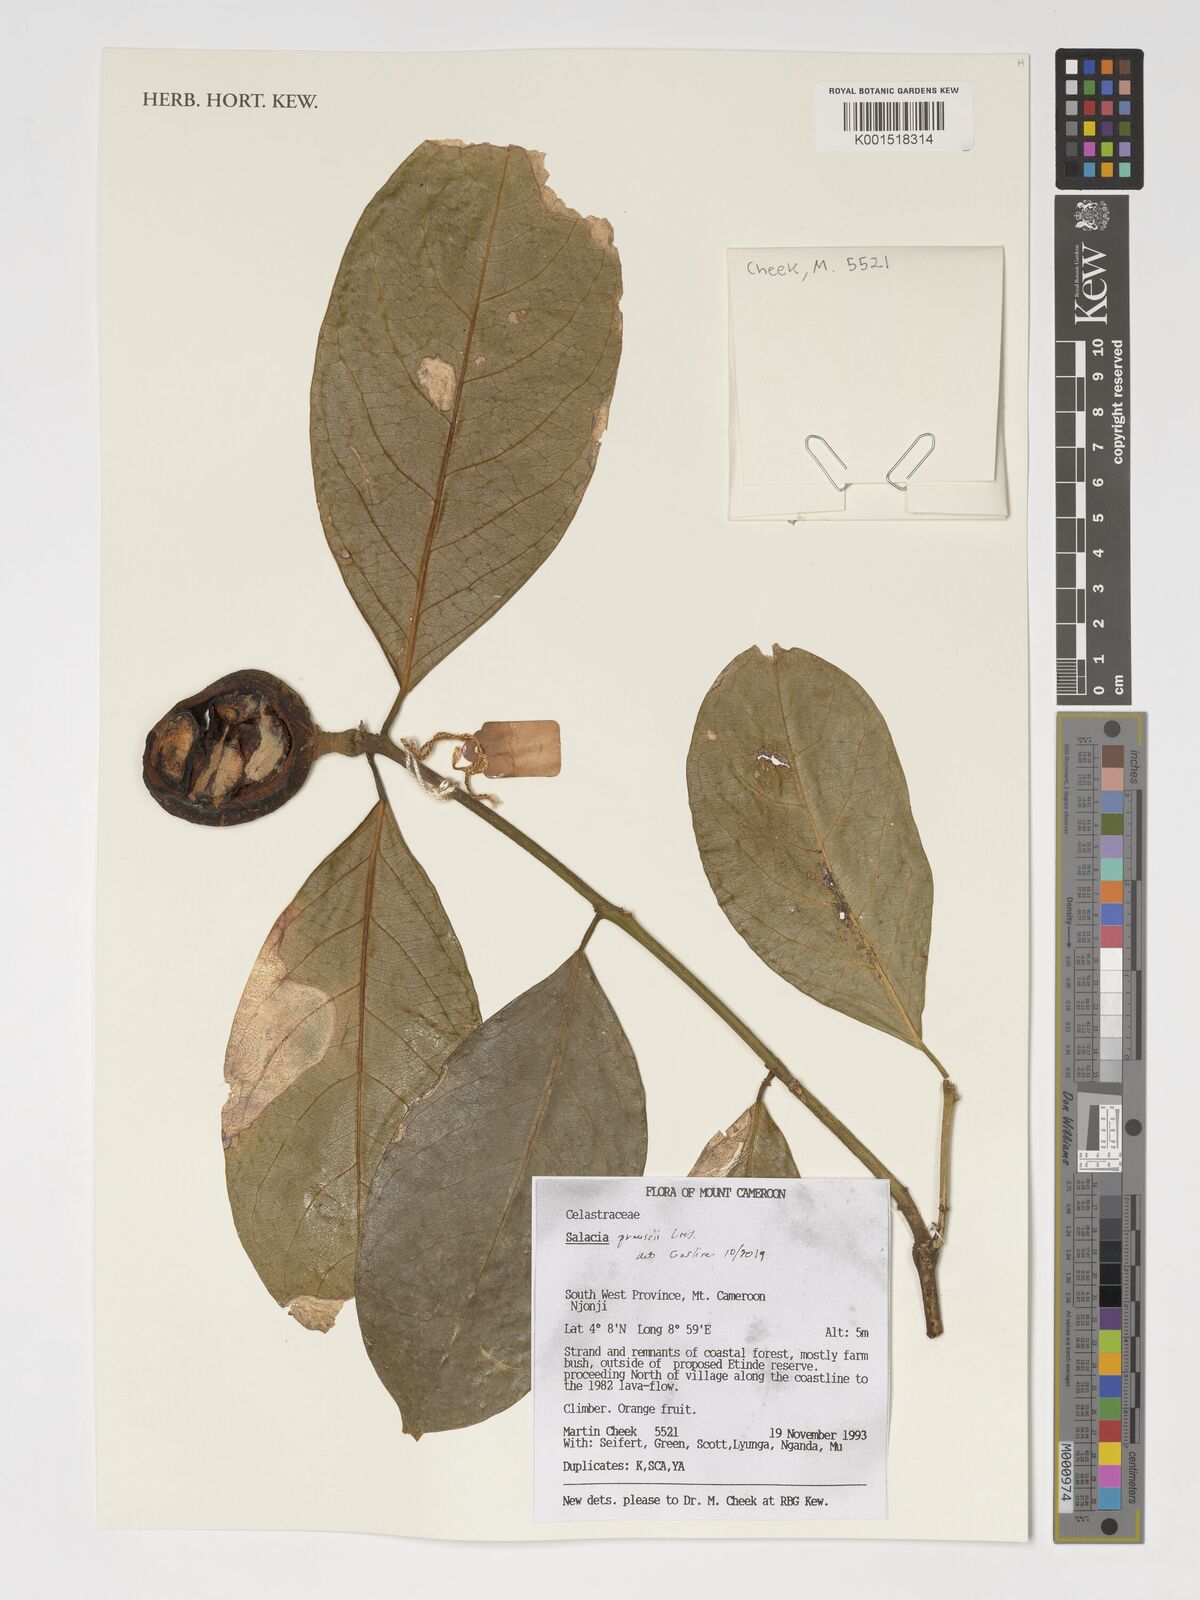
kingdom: Plantae
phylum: Tracheophyta
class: Magnoliopsida
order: Celastrales
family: Celastraceae
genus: Salacia
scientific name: Salacia preussii
